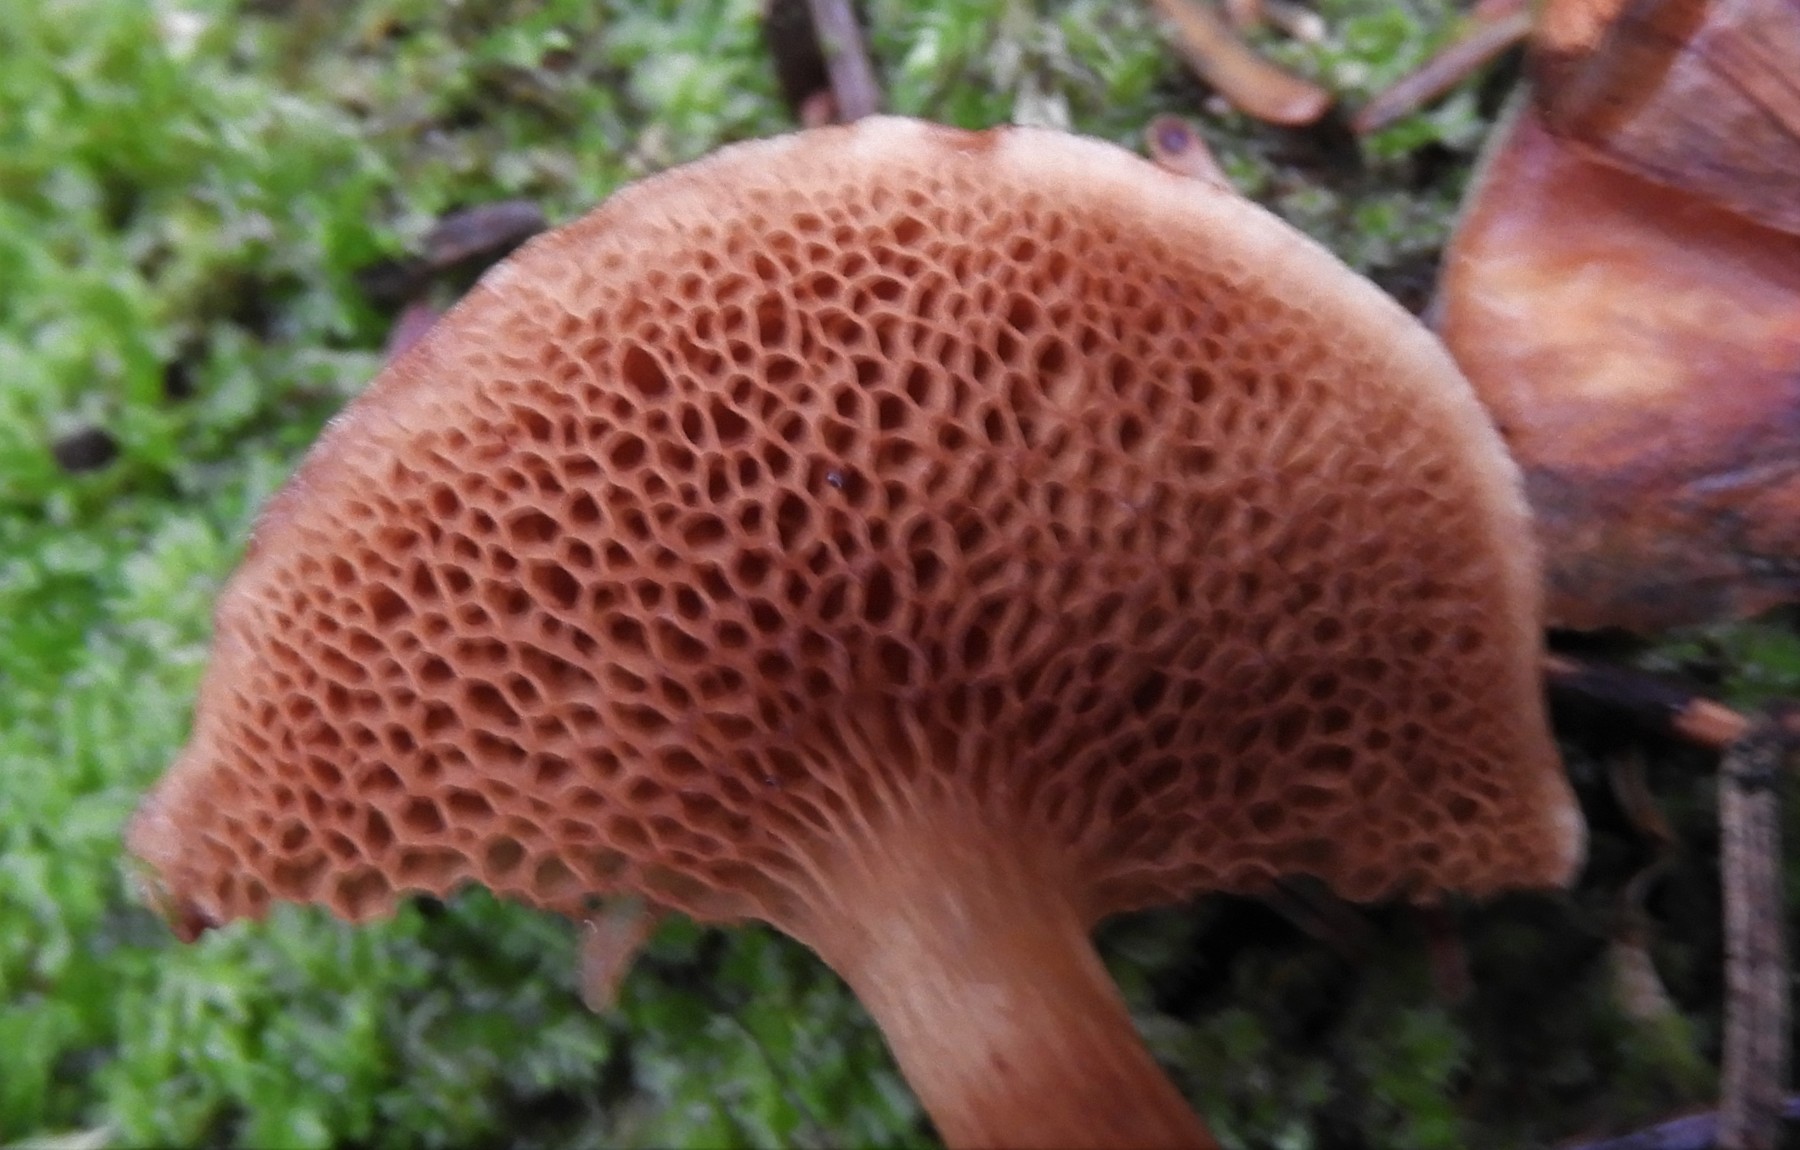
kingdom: Fungi
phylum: Basidiomycota
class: Agaricomycetes
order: Boletales
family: Boletaceae
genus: Chalciporus
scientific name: Chalciporus piperatus
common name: peberrørhat
